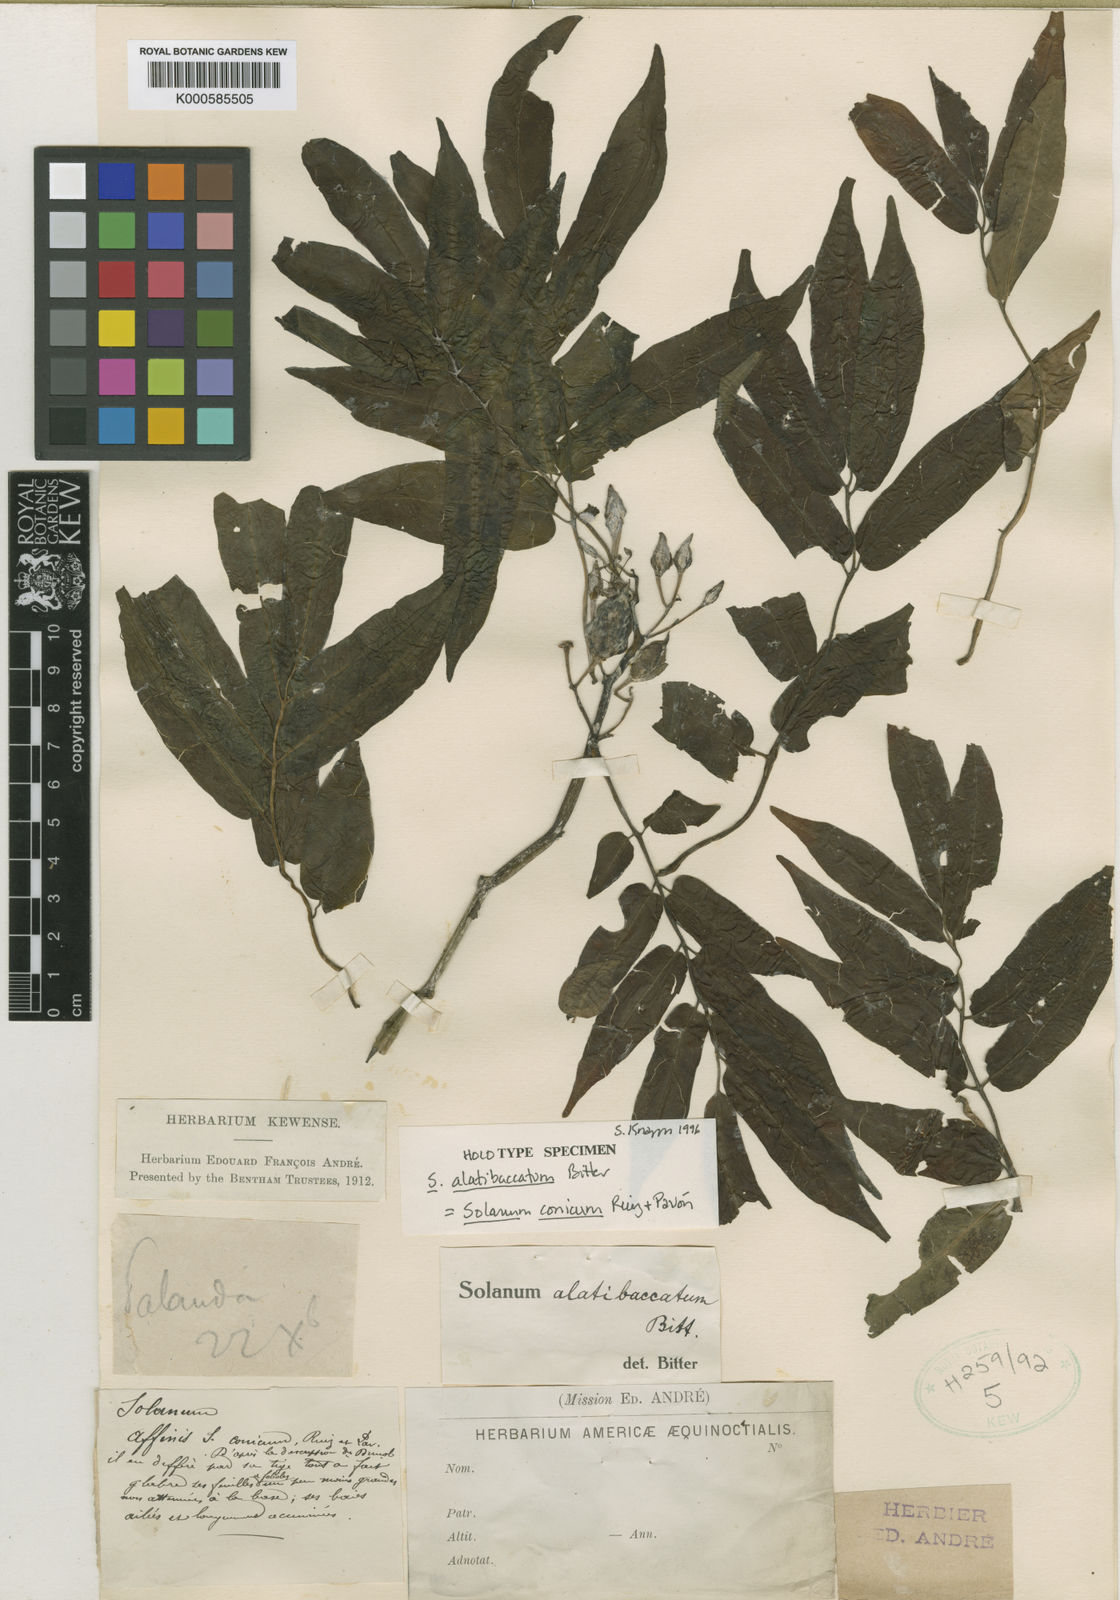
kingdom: Plantae
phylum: Tracheophyta
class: Magnoliopsida
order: Solanales
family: Solanaceae
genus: Solanum
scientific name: Solanum conicum
